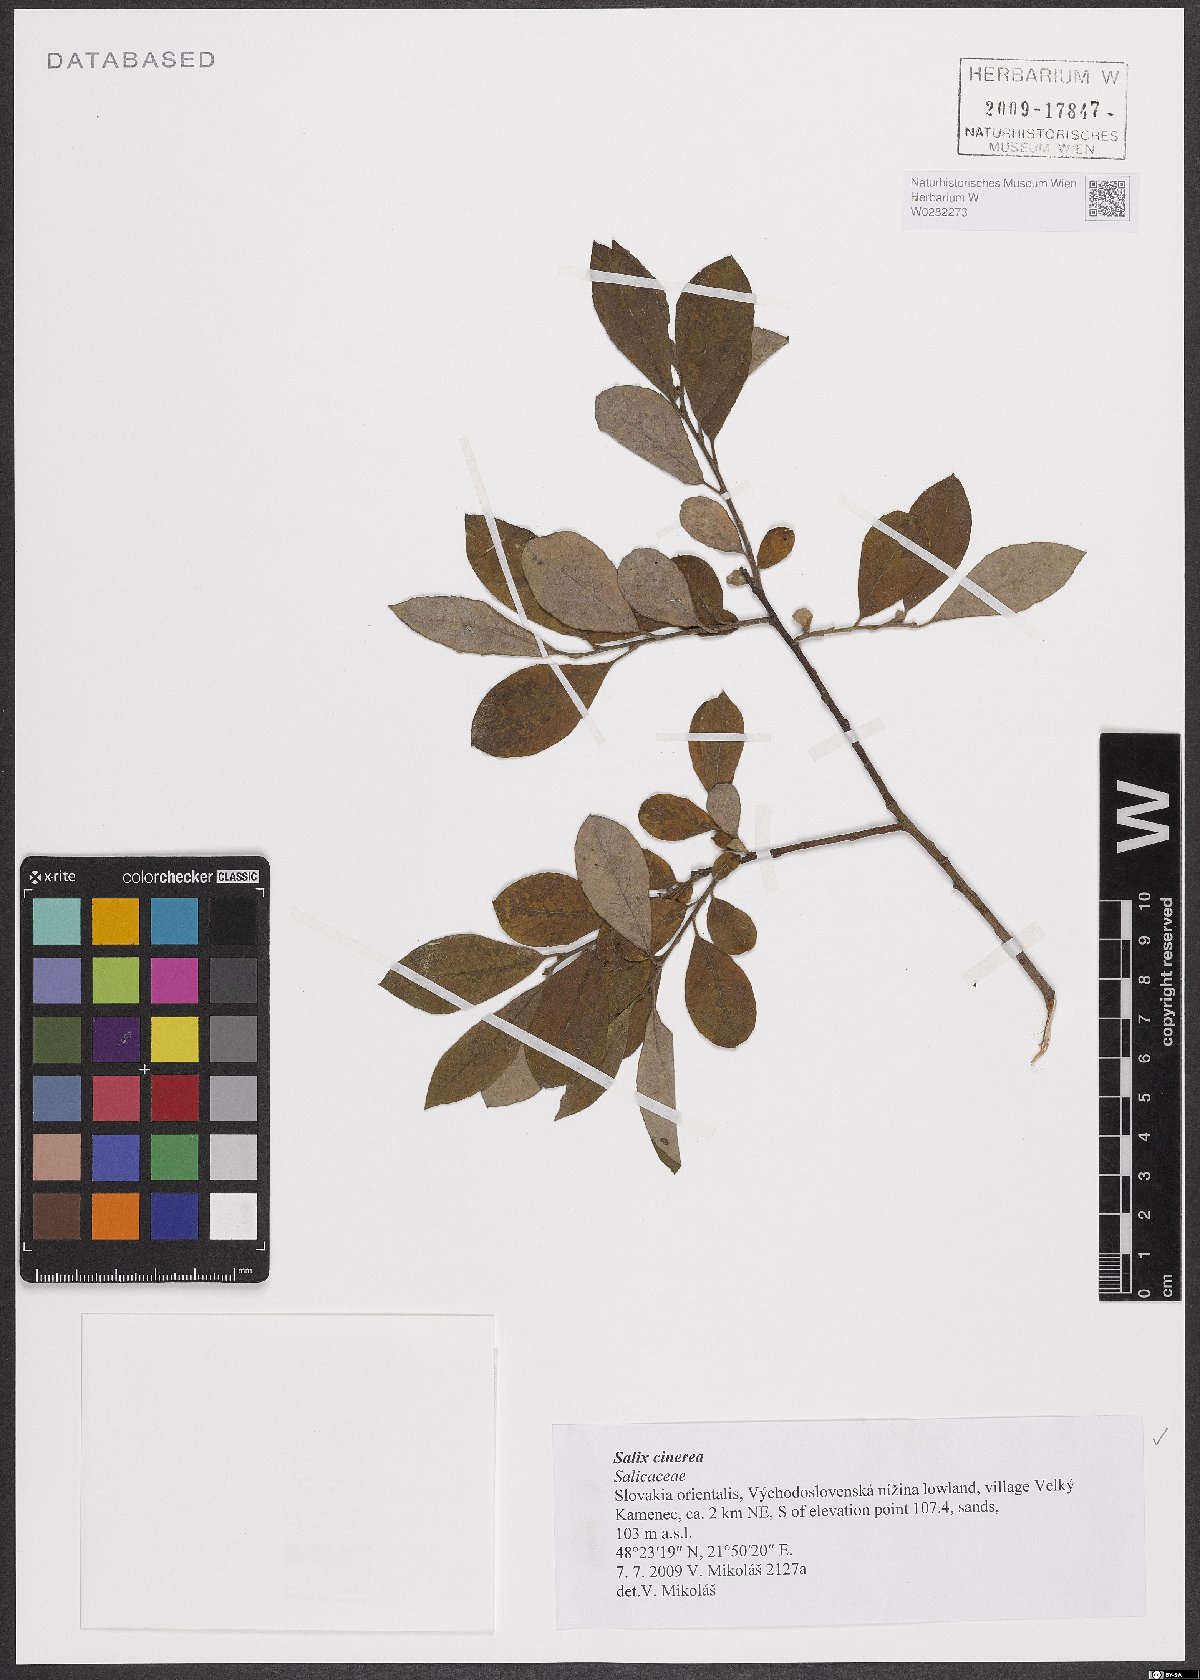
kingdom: Plantae
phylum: Tracheophyta
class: Magnoliopsida
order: Malpighiales
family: Salicaceae
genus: Salix
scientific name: Salix cinerea
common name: Common sallow
